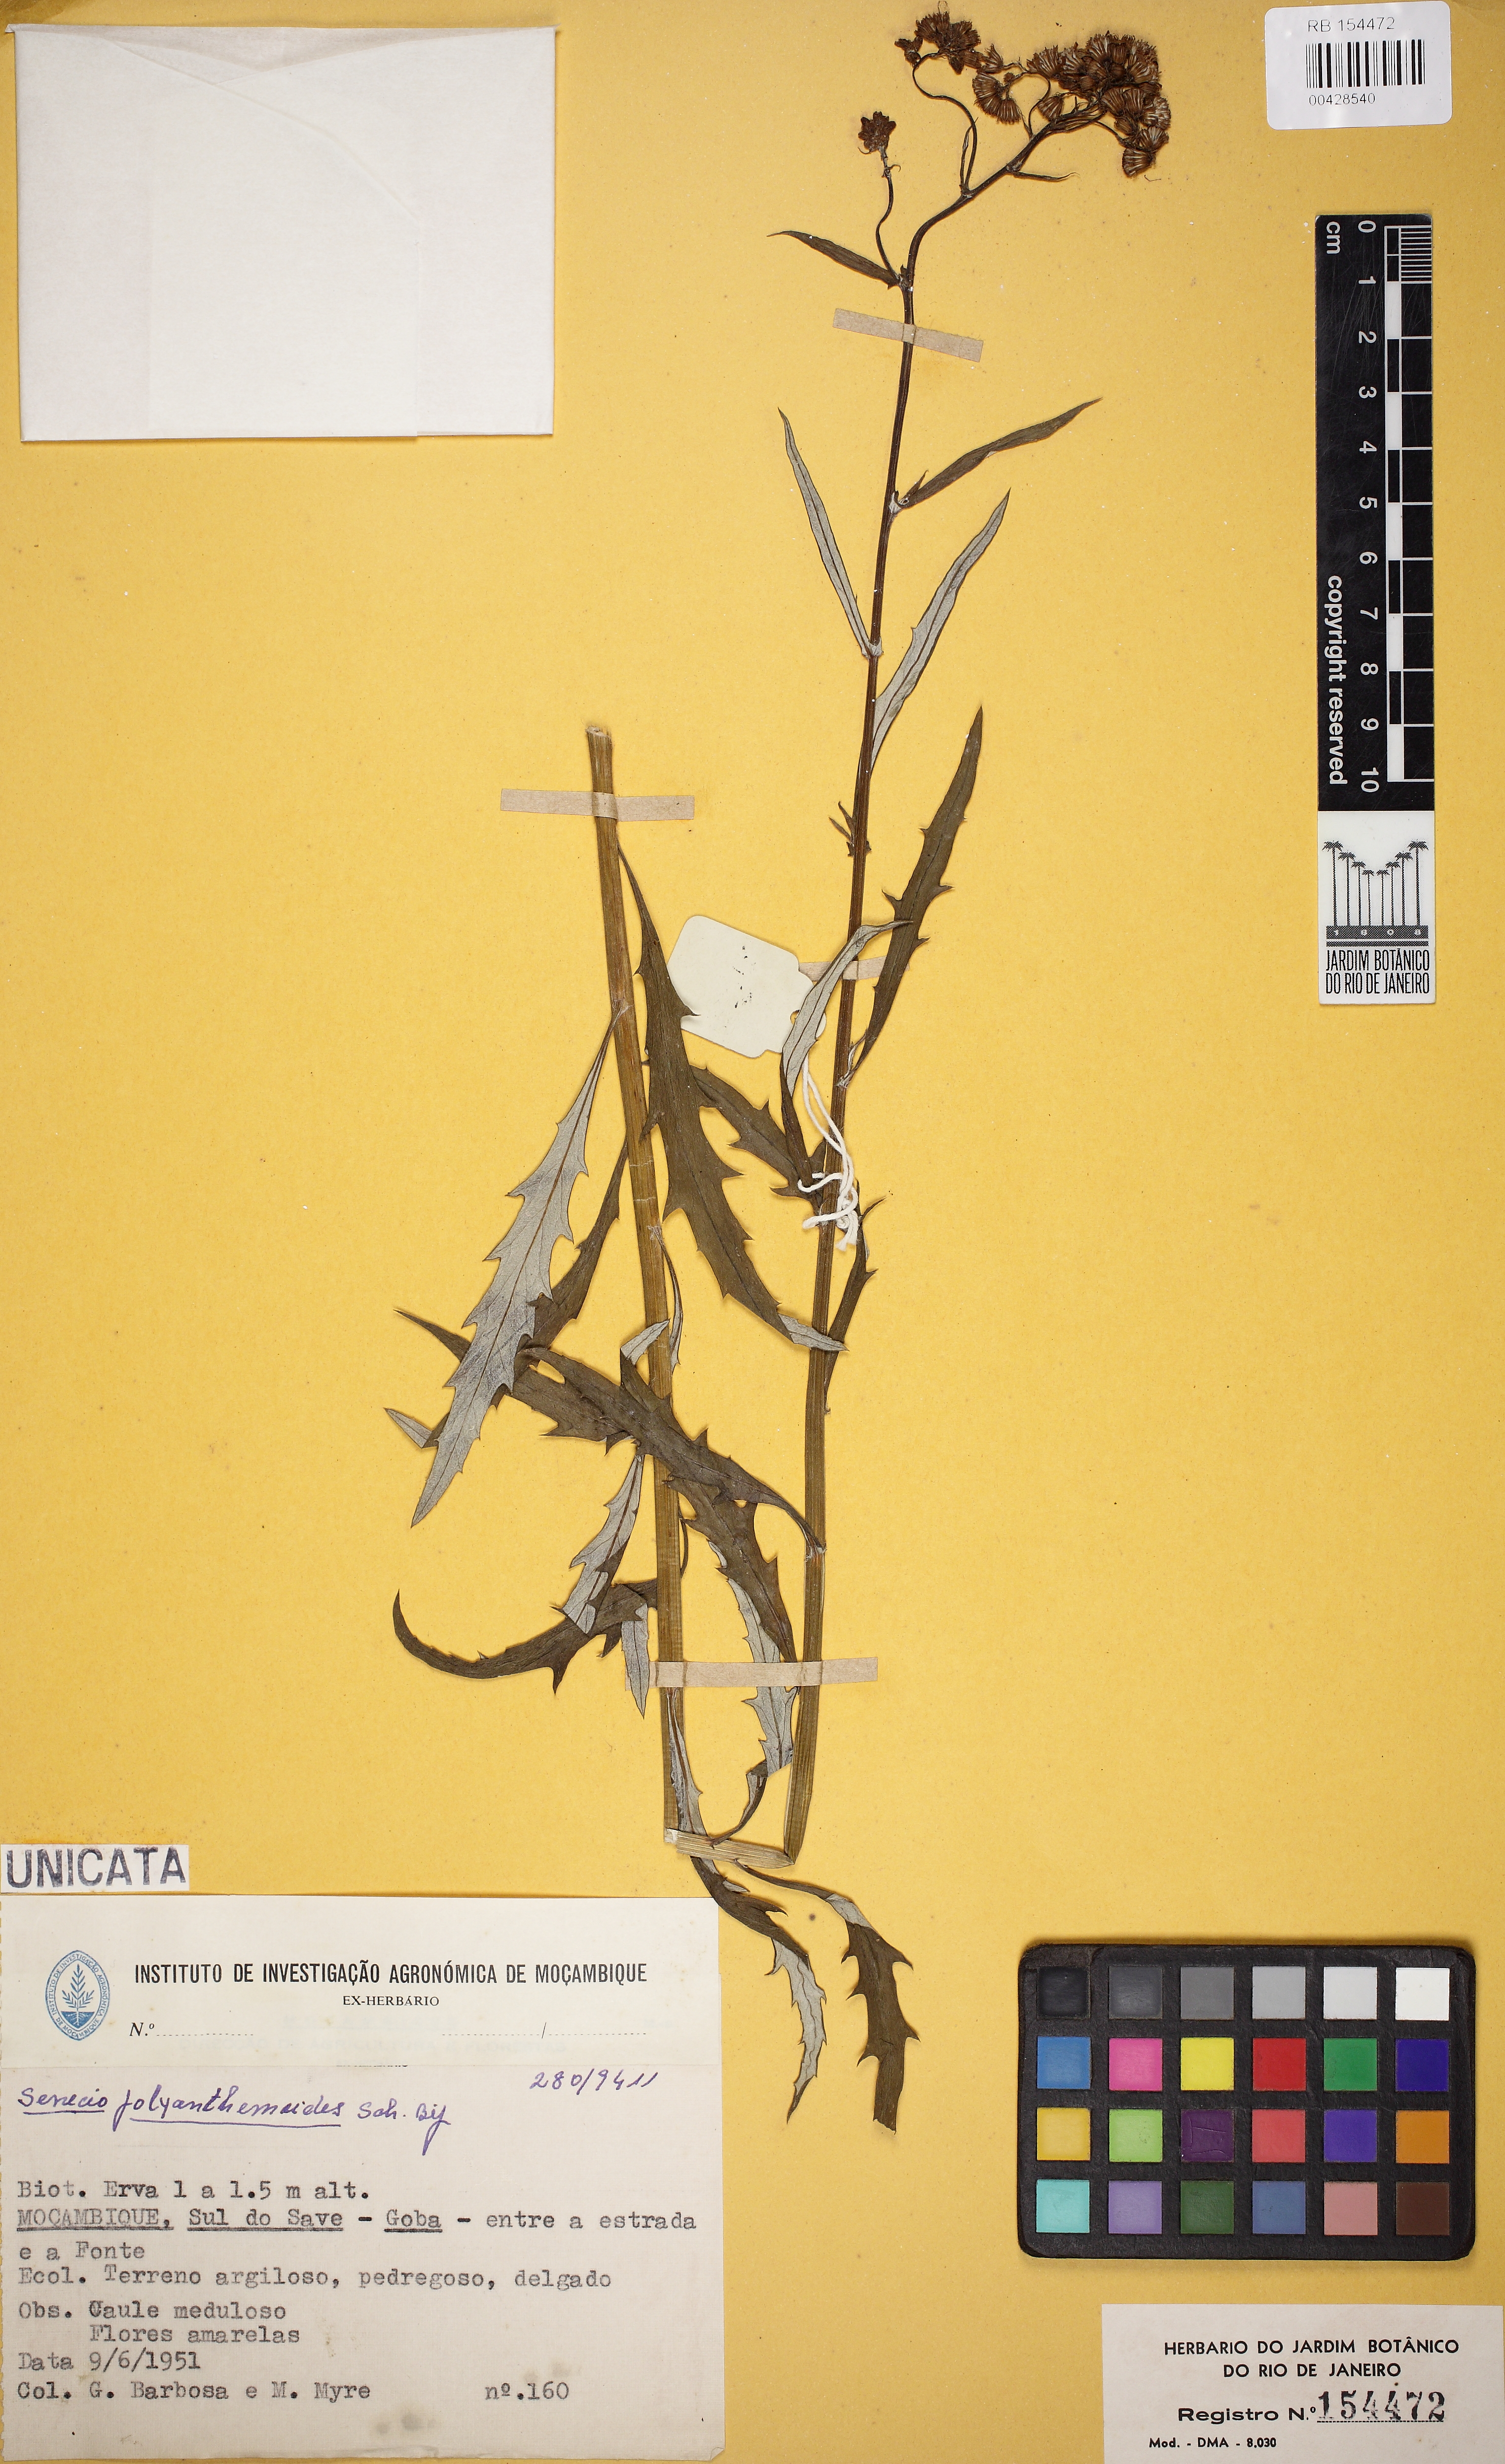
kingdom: Plantae
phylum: Tracheophyta
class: Magnoliopsida
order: Asterales
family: Asteraceae
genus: Senecio
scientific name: Senecio polyanthemoides
